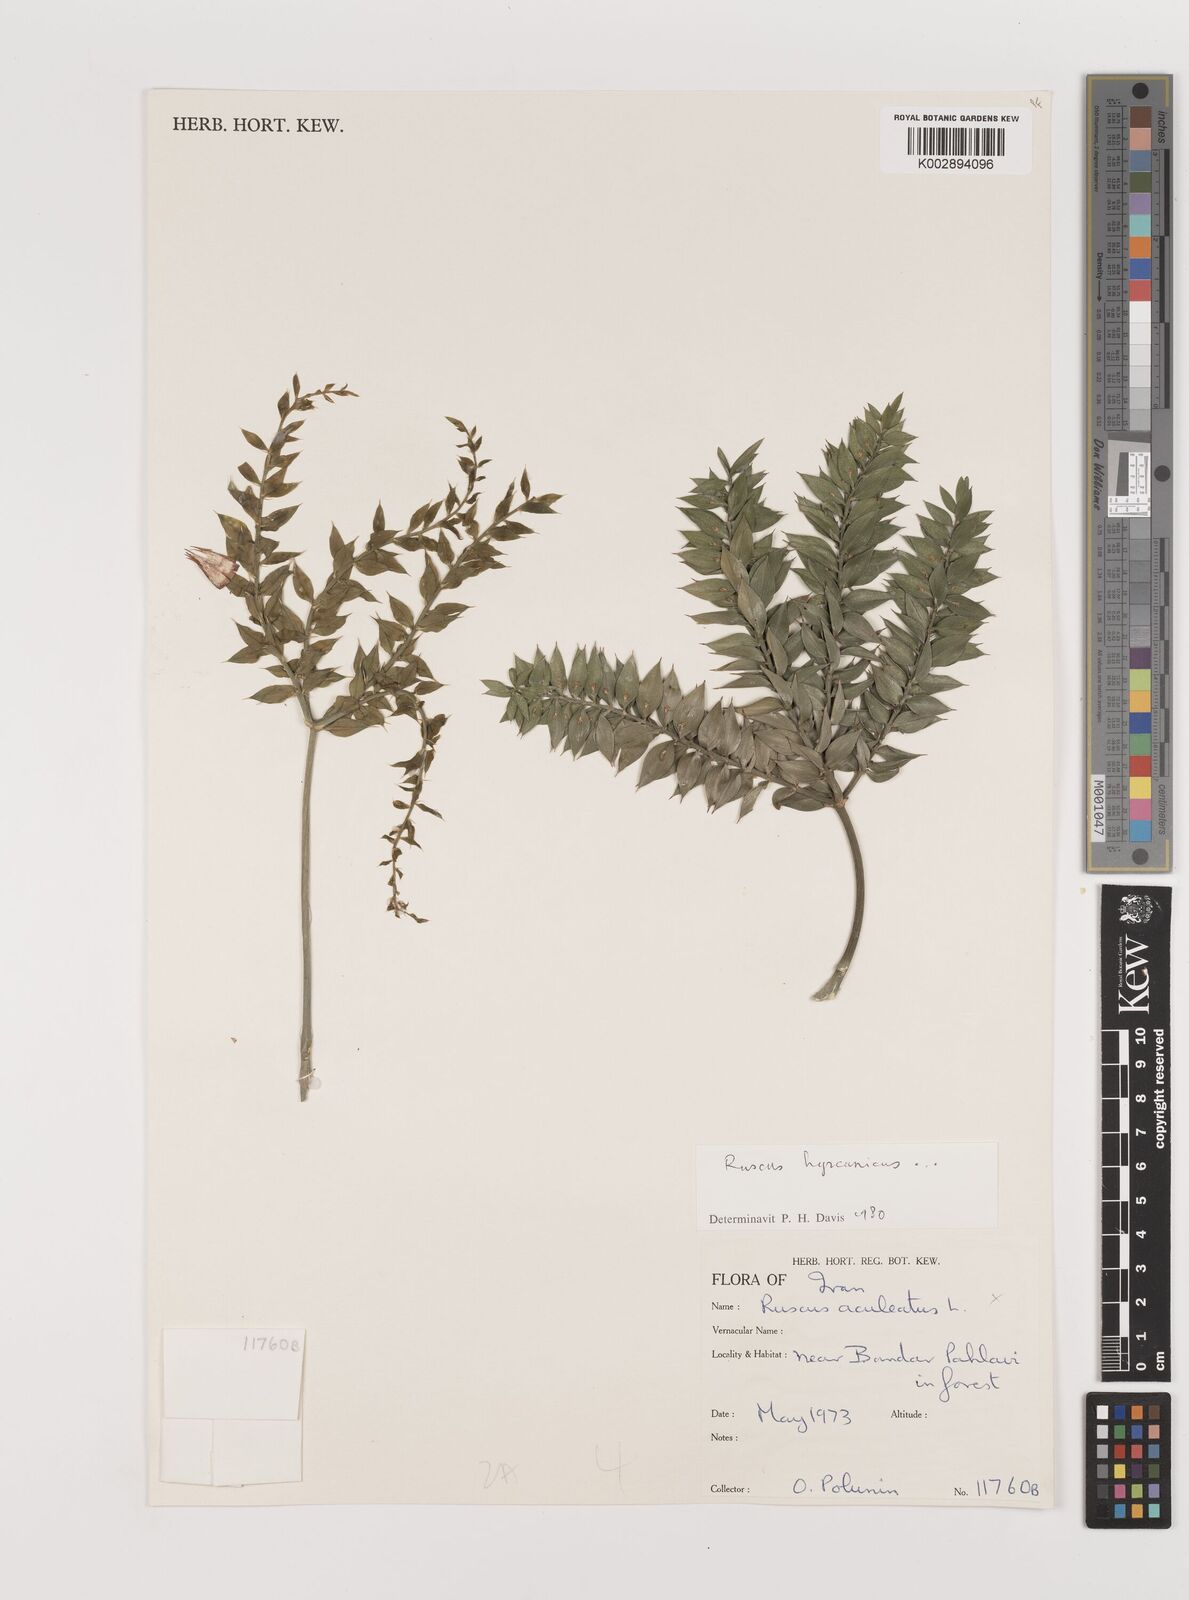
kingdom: Plantae
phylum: Tracheophyta
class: Liliopsida
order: Asparagales
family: Asparagaceae
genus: Ruscus
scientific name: Ruscus aculeatus
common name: Butcher's-broom
